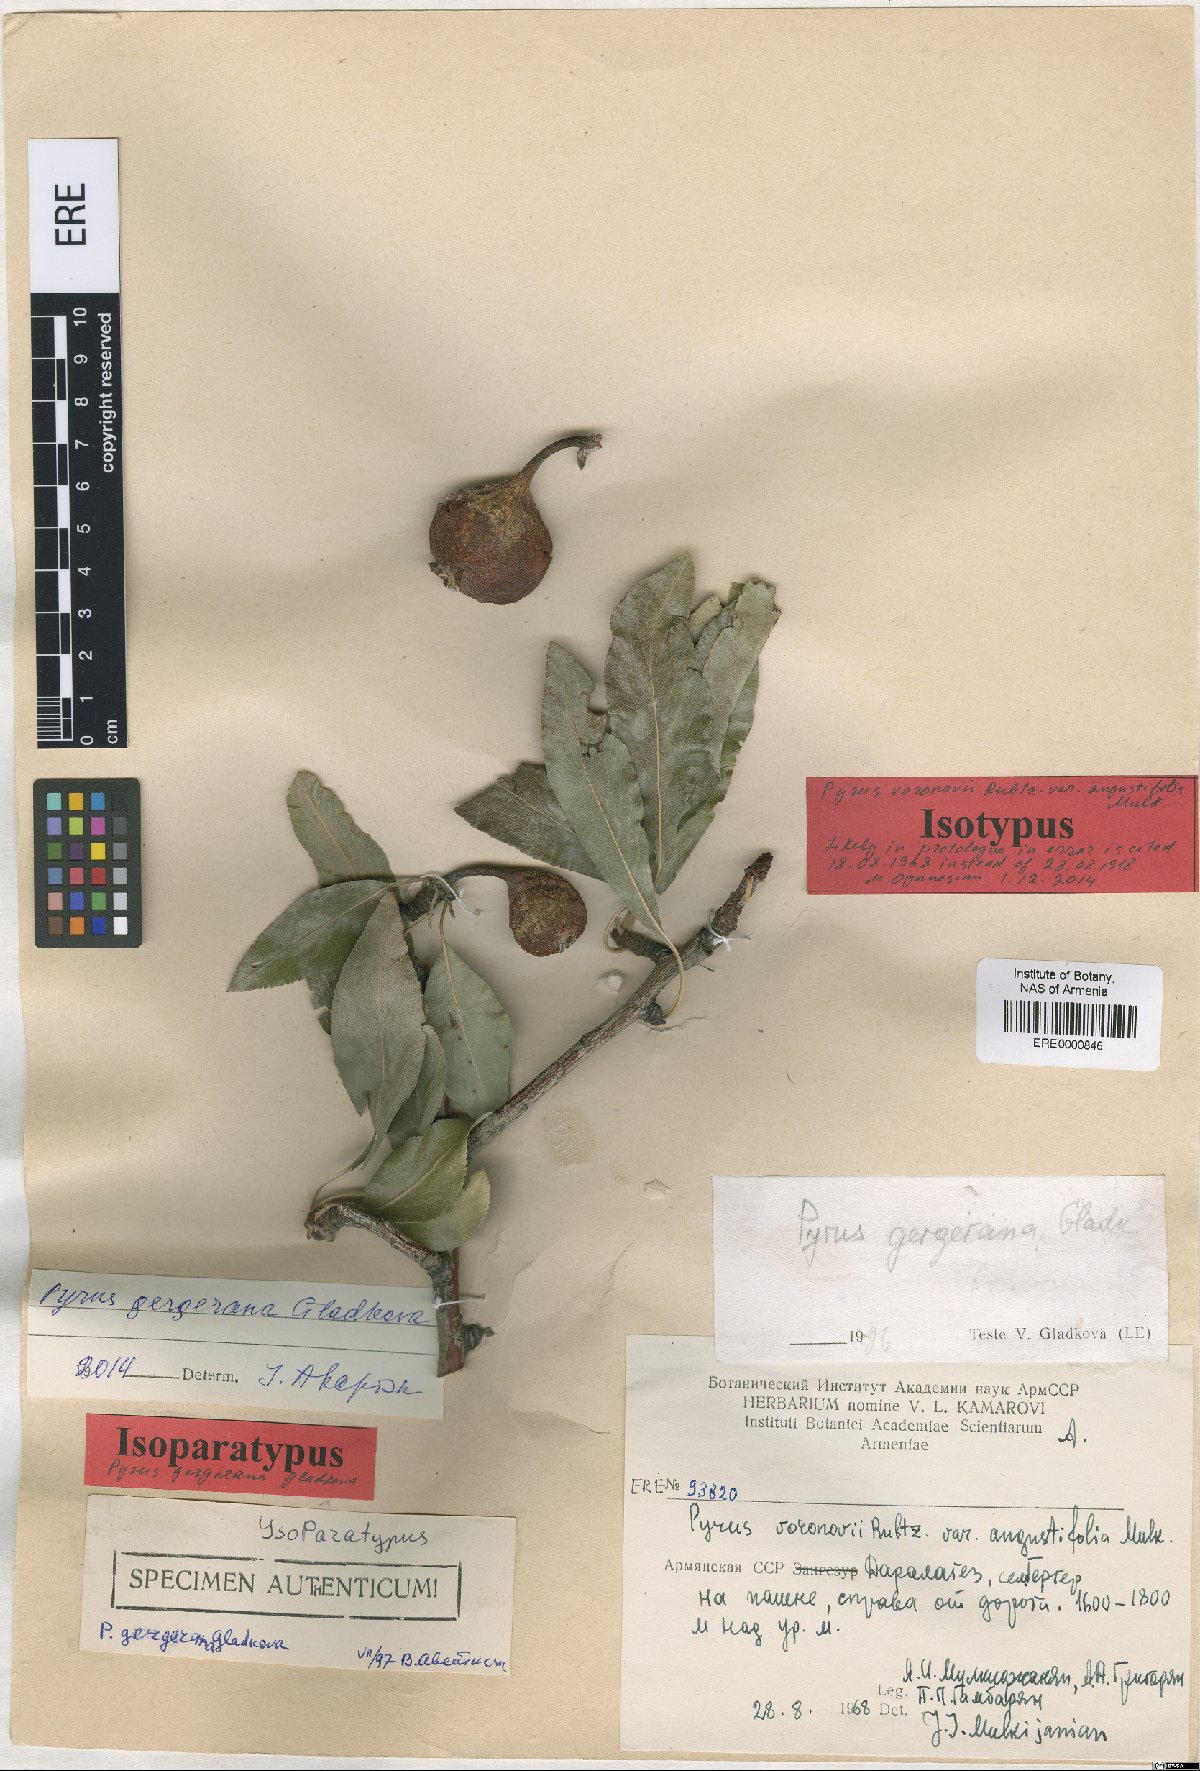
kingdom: Plantae
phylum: Tracheophyta
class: Magnoliopsida
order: Rosales
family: Rosaceae
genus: Pyrus
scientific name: Pyrus gergerana
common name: Gergeranian pear
